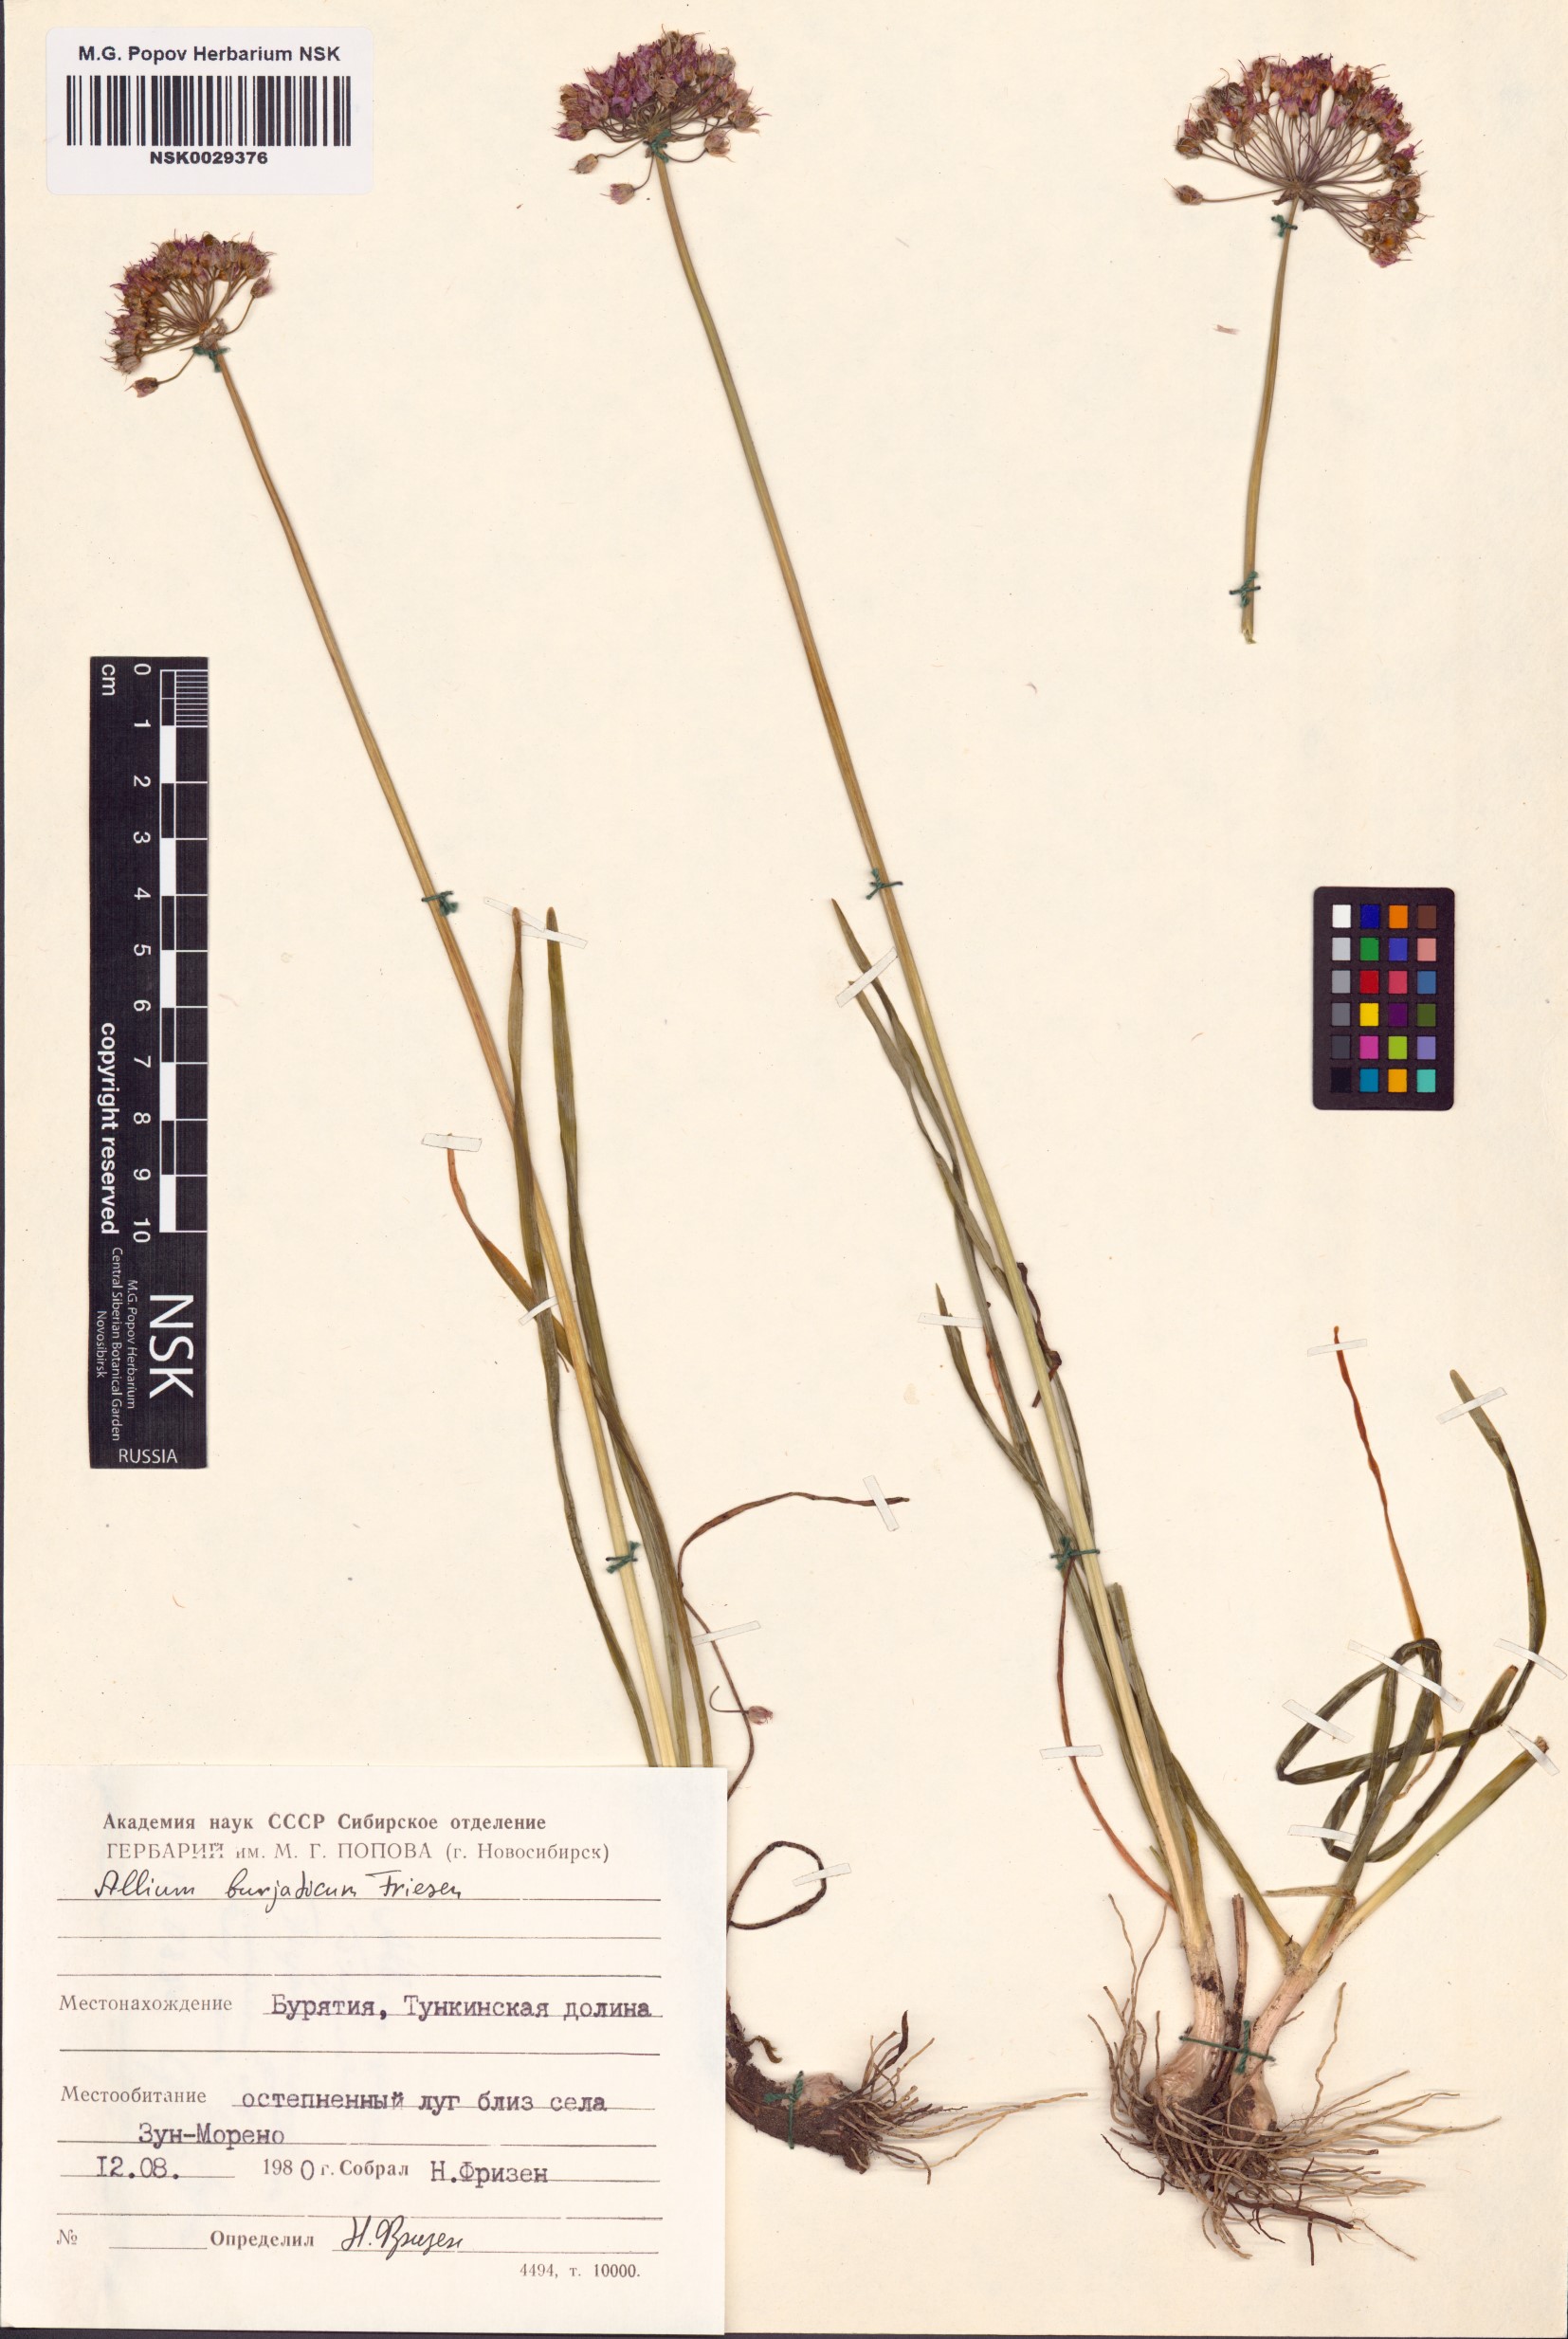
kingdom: Plantae
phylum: Tracheophyta
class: Liliopsida
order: Asparagales
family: Amaryllidaceae
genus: Allium
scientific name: Allium burjaticum
